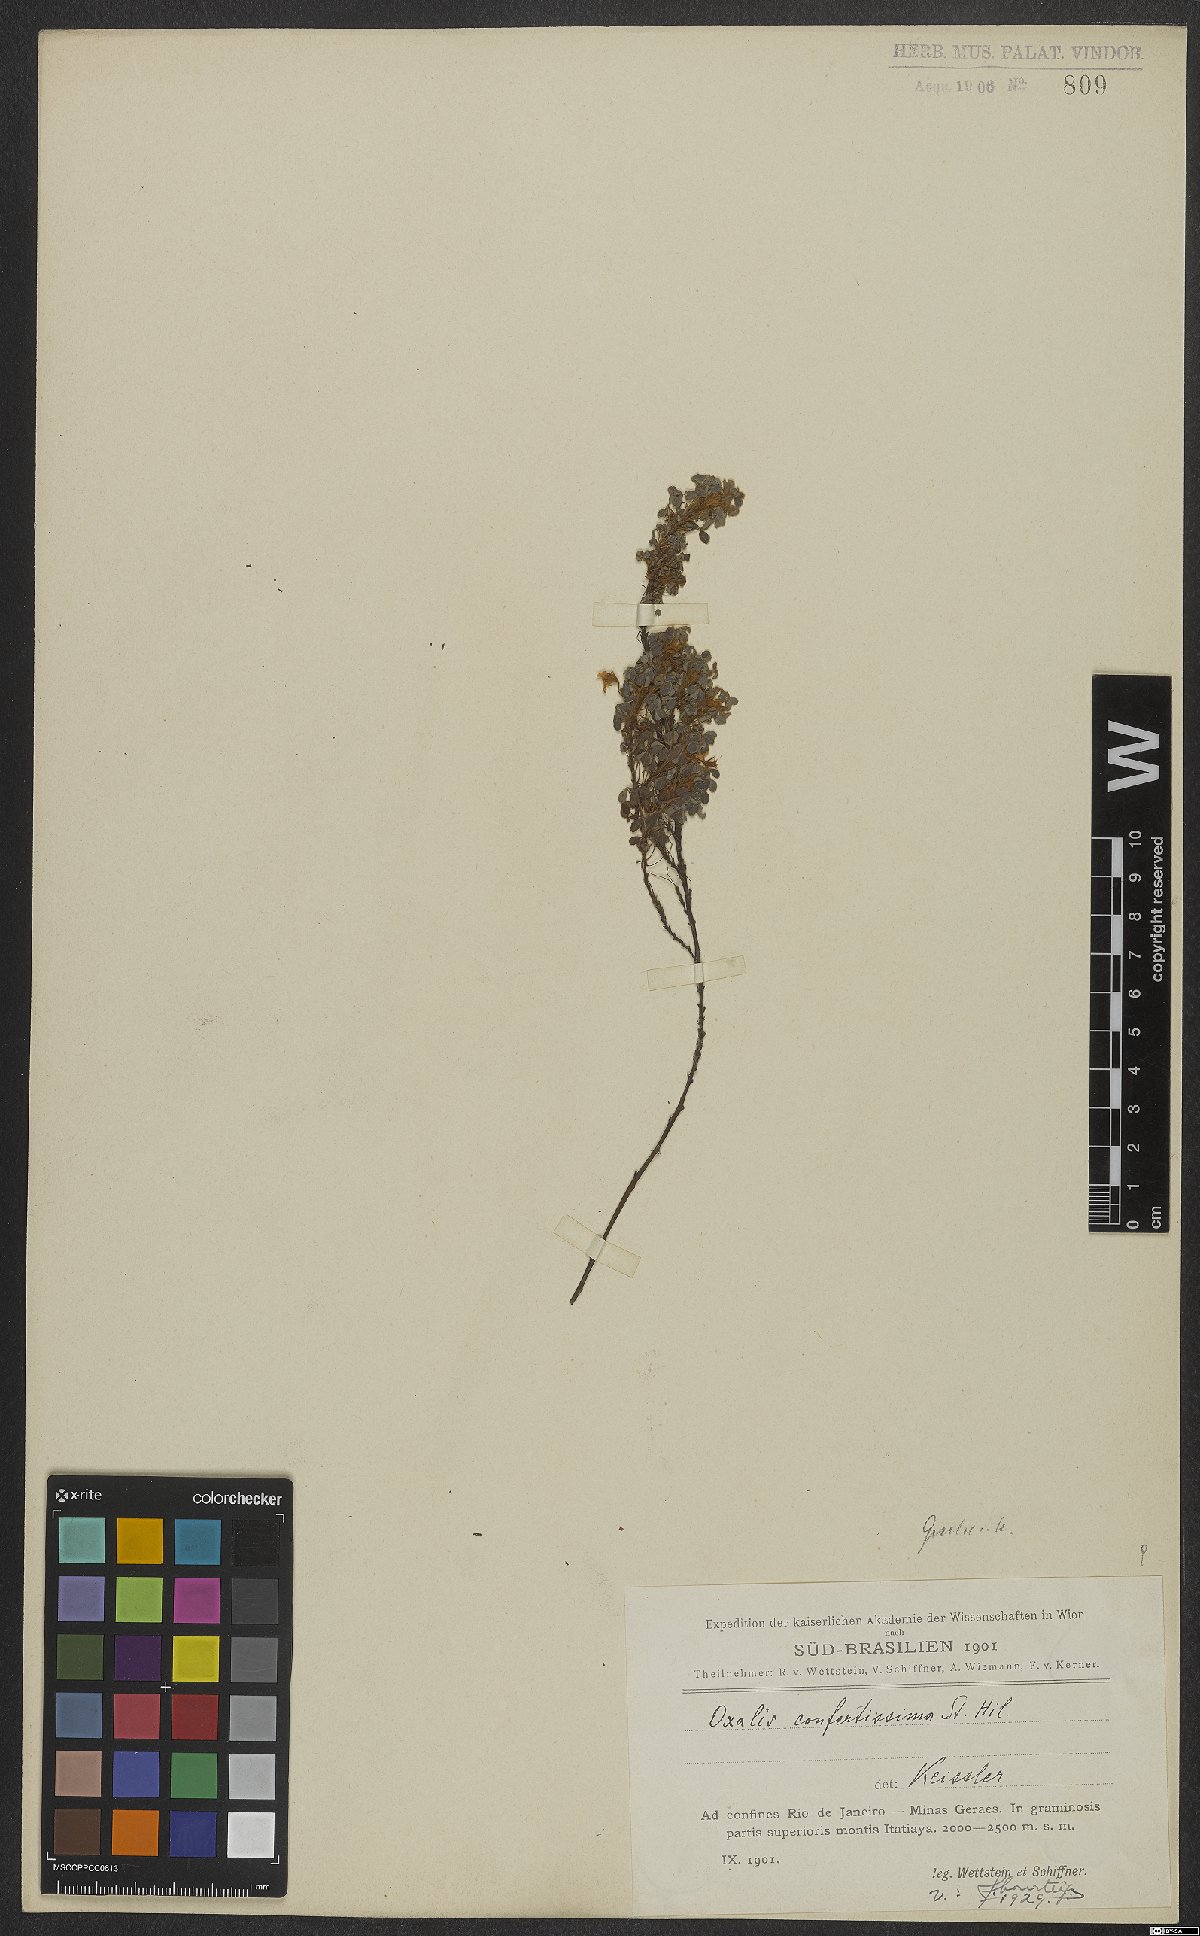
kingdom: Plantae
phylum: Tracheophyta
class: Magnoliopsida
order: Oxalidales
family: Oxalidaceae
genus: Oxalis
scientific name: Oxalis confertissima
